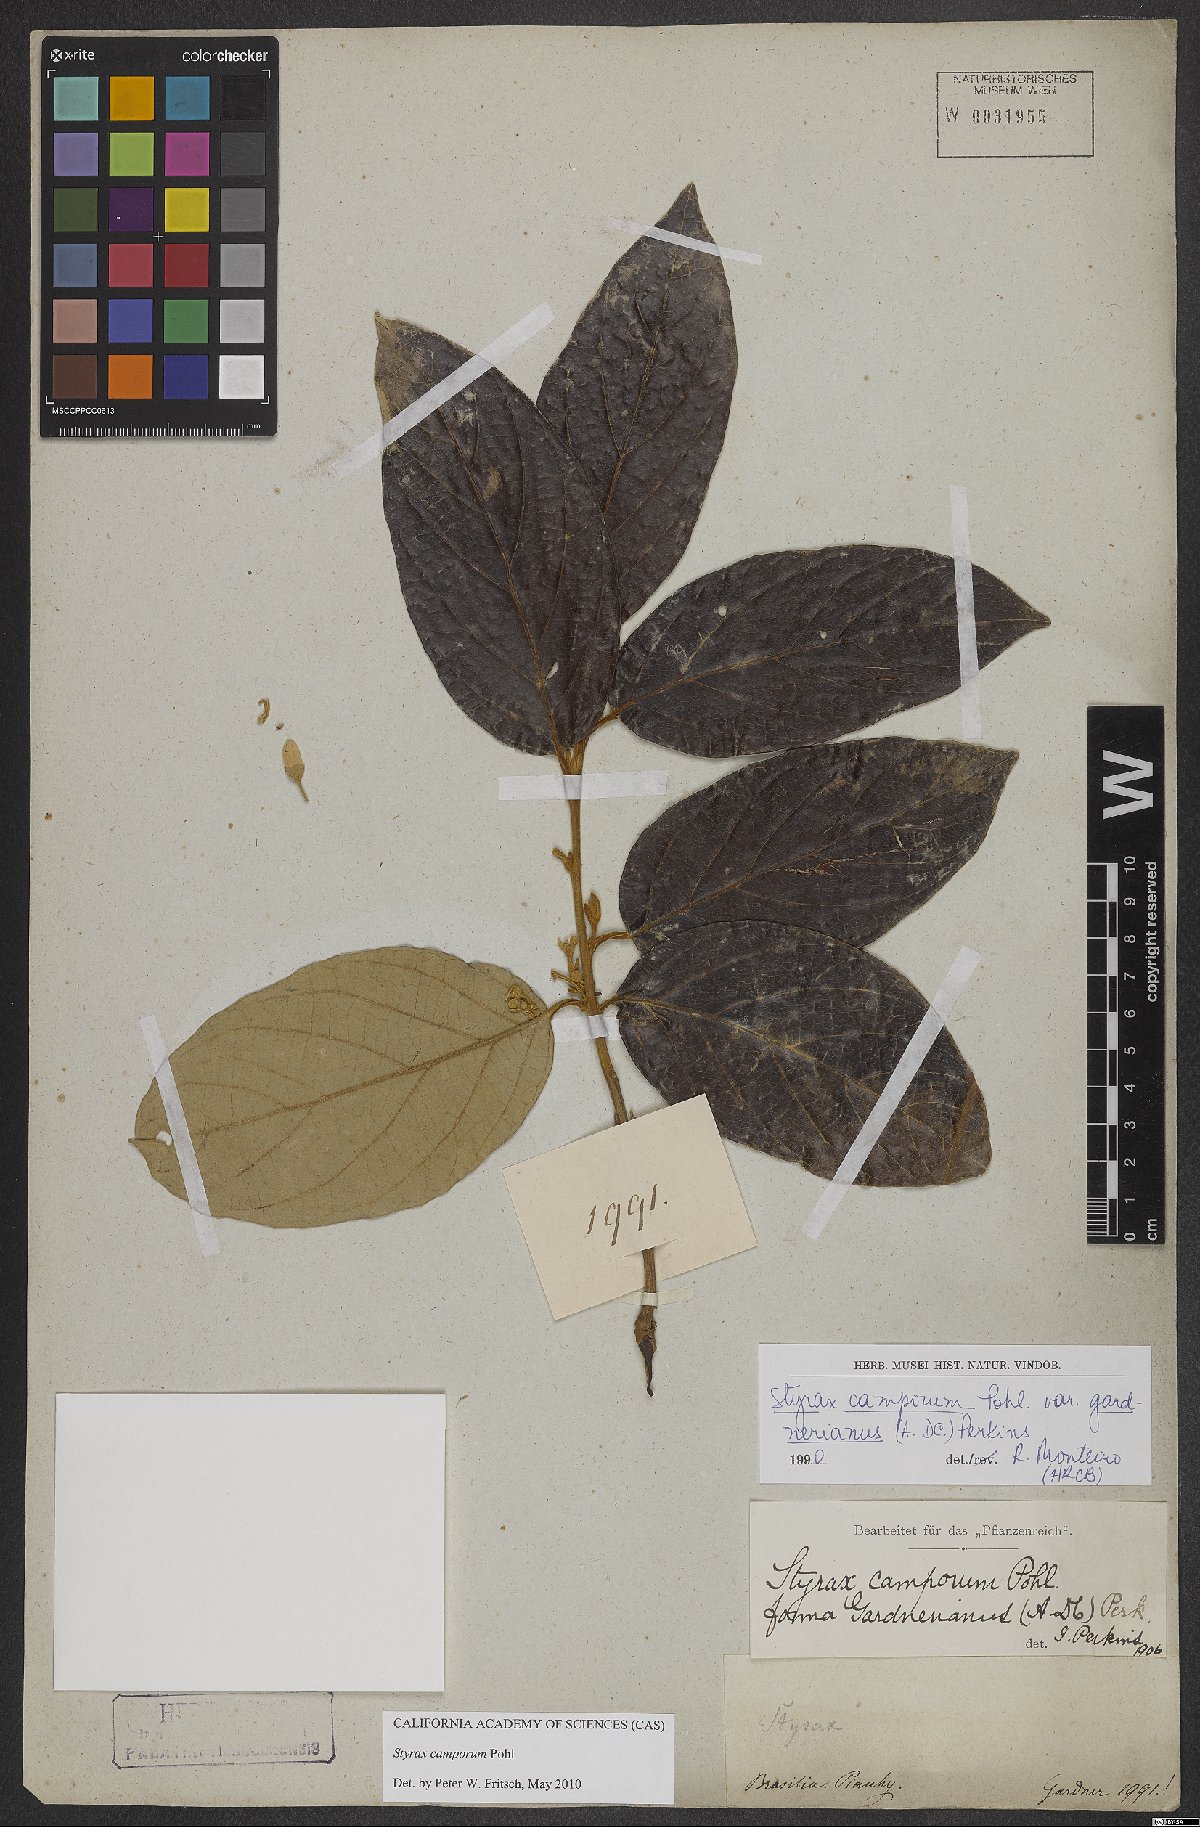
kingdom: Plantae
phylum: Tracheophyta
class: Magnoliopsida
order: Ericales
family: Styracaceae
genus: Styrax
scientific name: Styrax camporum
